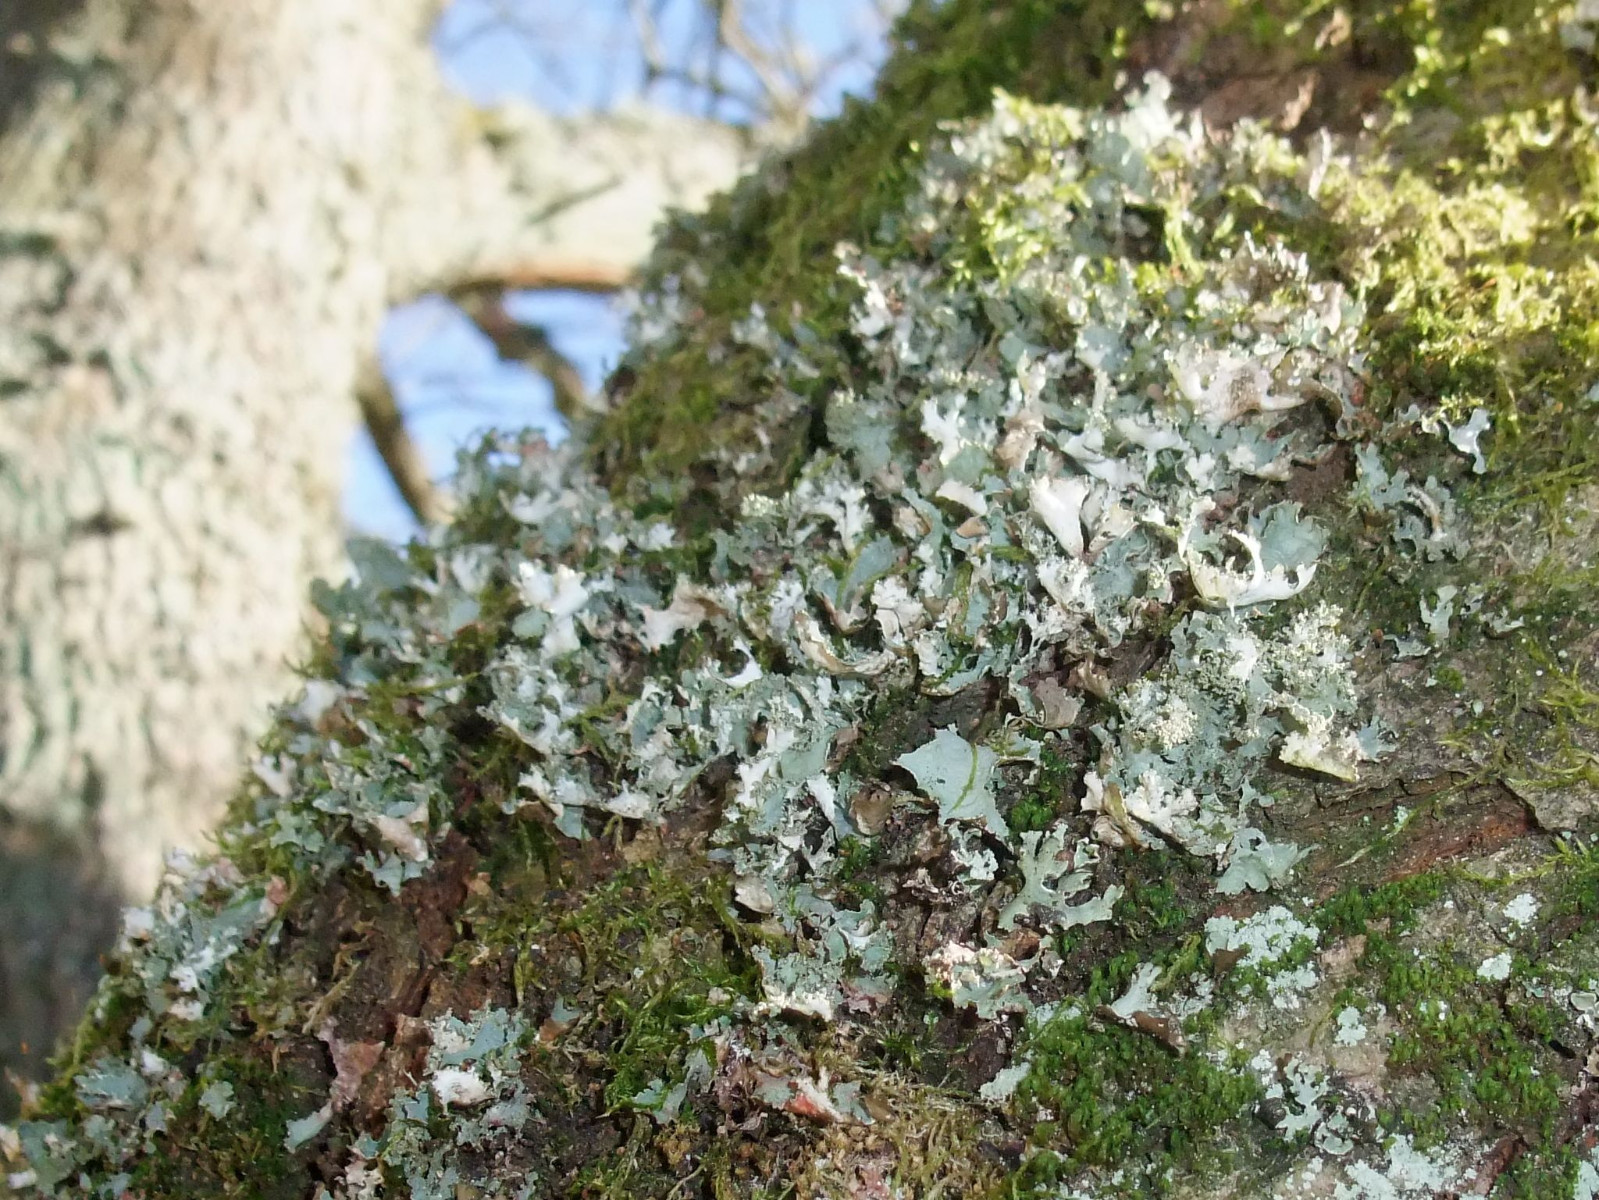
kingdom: Fungi
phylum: Ascomycota
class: Lecanoromycetes
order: Lecanorales
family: Parmeliaceae
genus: Platismatia
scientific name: Platismatia glauca
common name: blågrå papirlav
